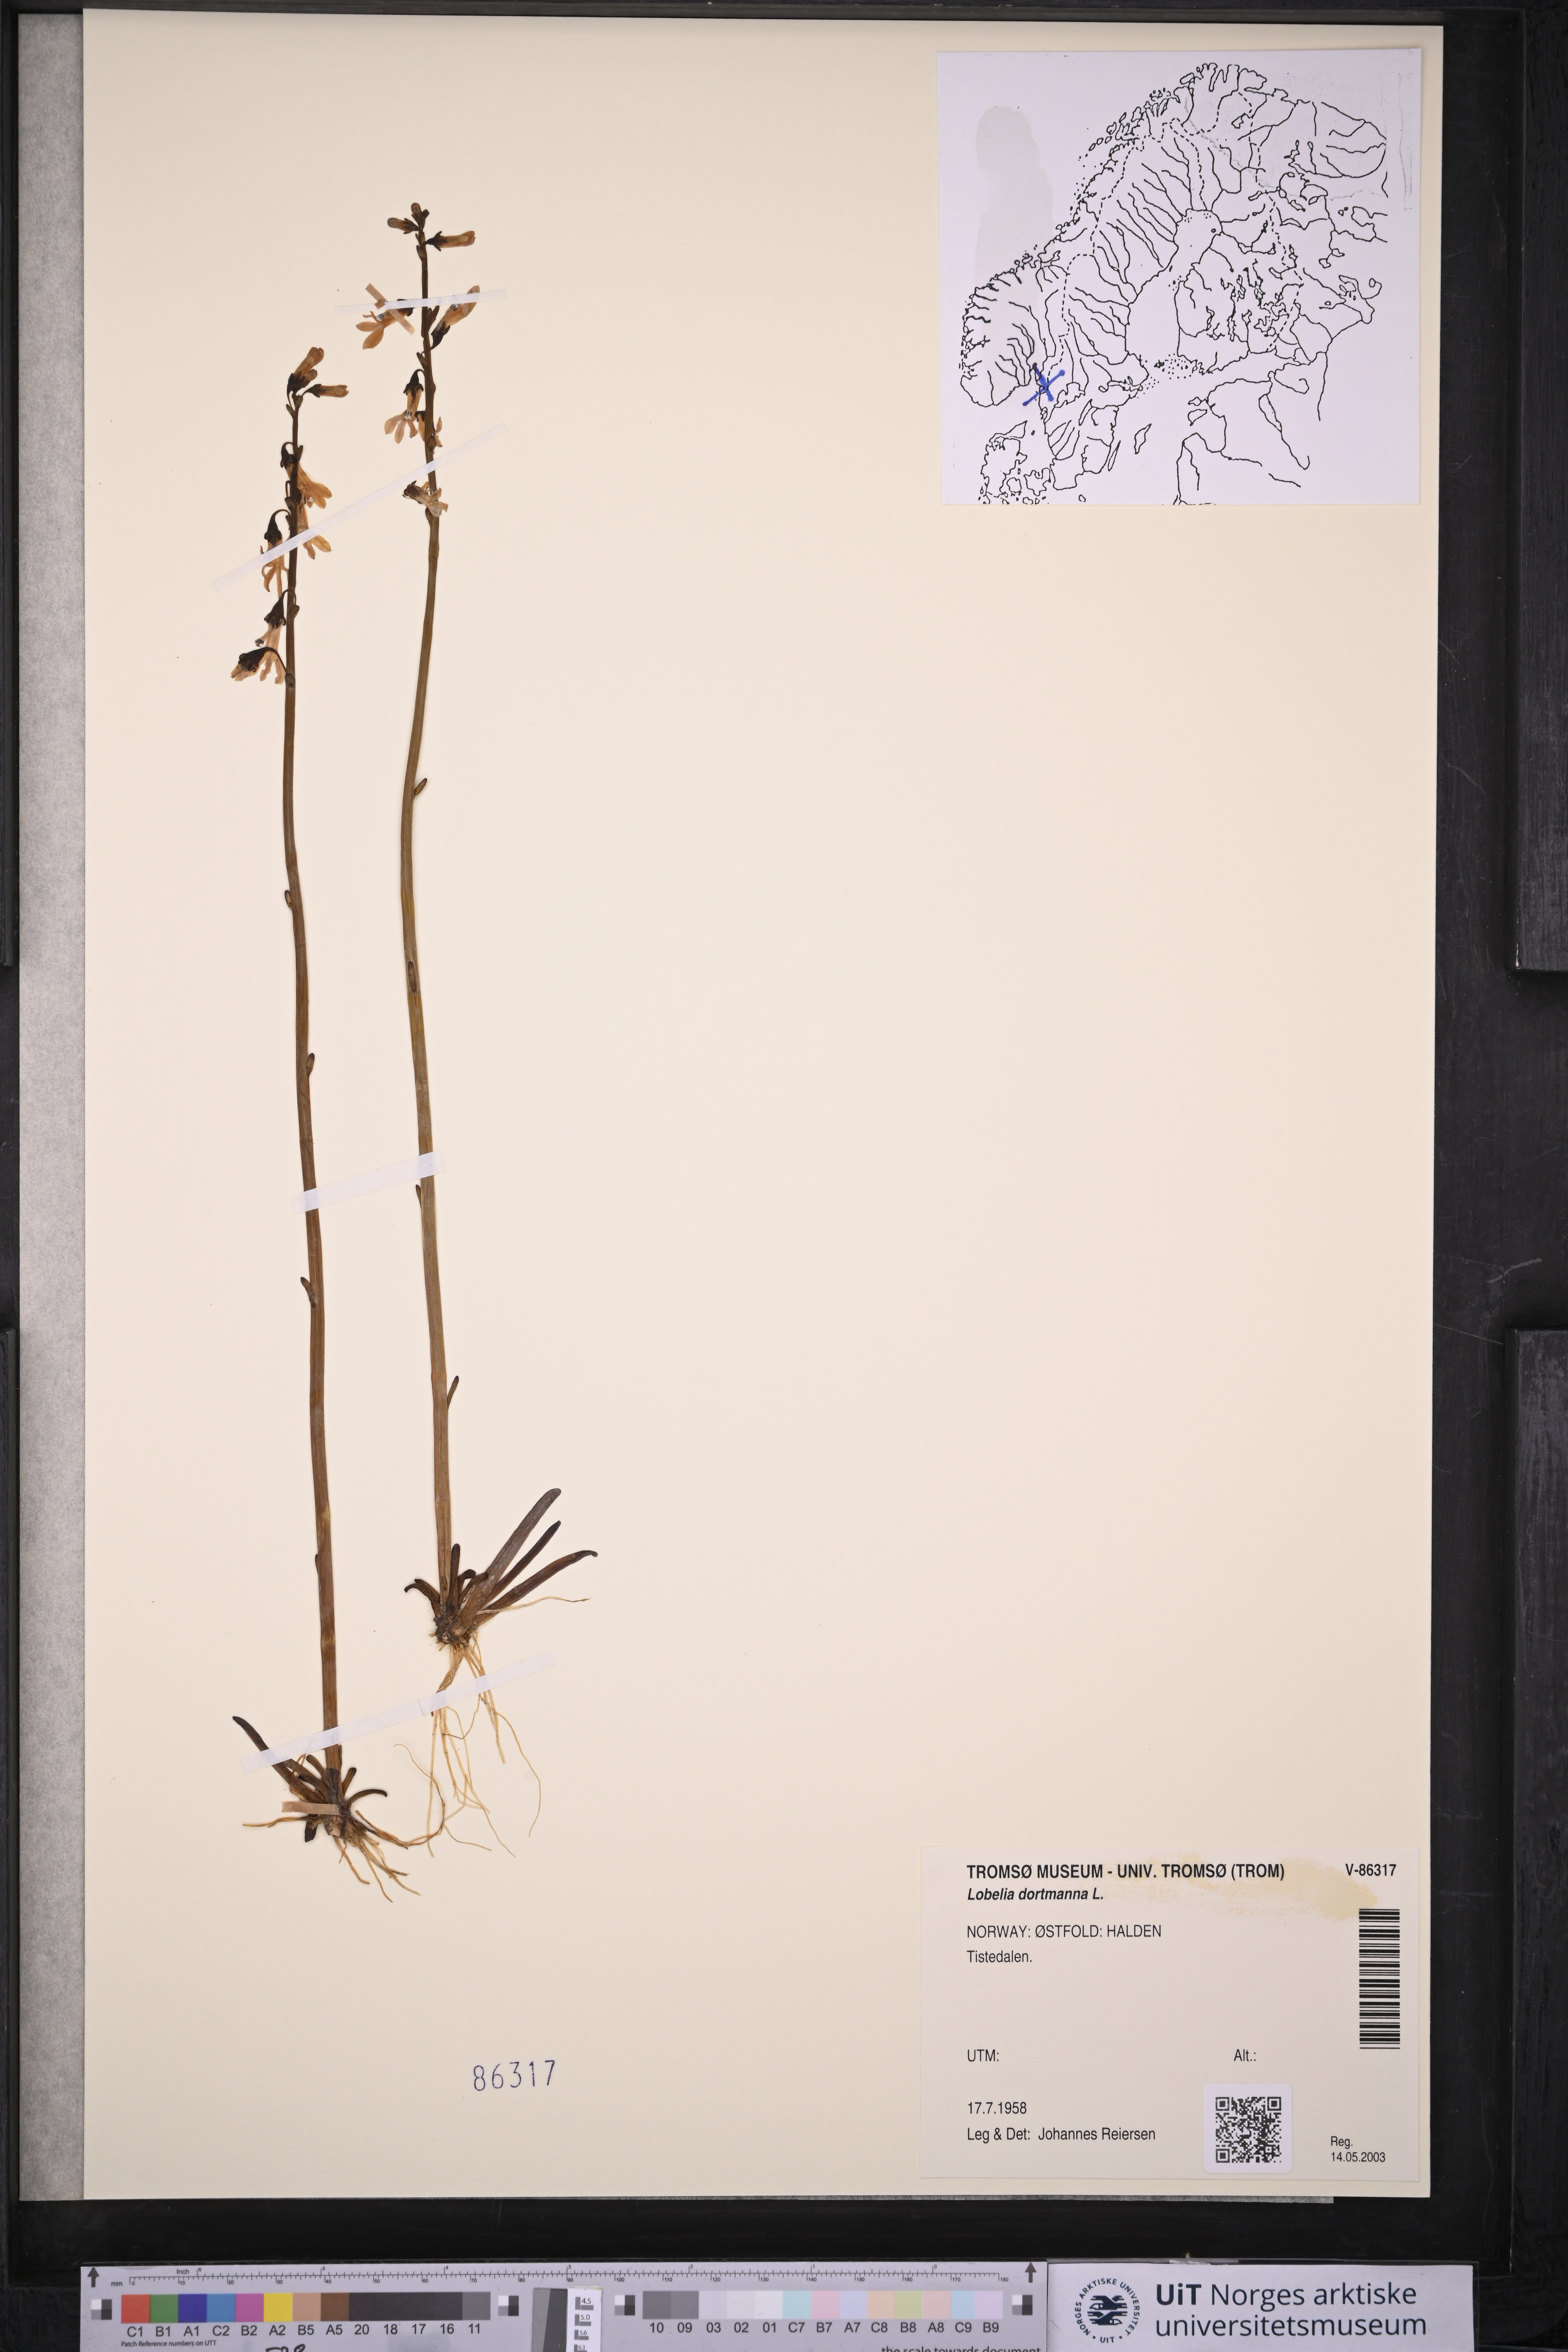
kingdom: Plantae
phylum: Tracheophyta
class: Magnoliopsida
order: Asterales
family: Campanulaceae
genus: Lobelia
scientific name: Lobelia dortmanna
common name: Water lobelia
